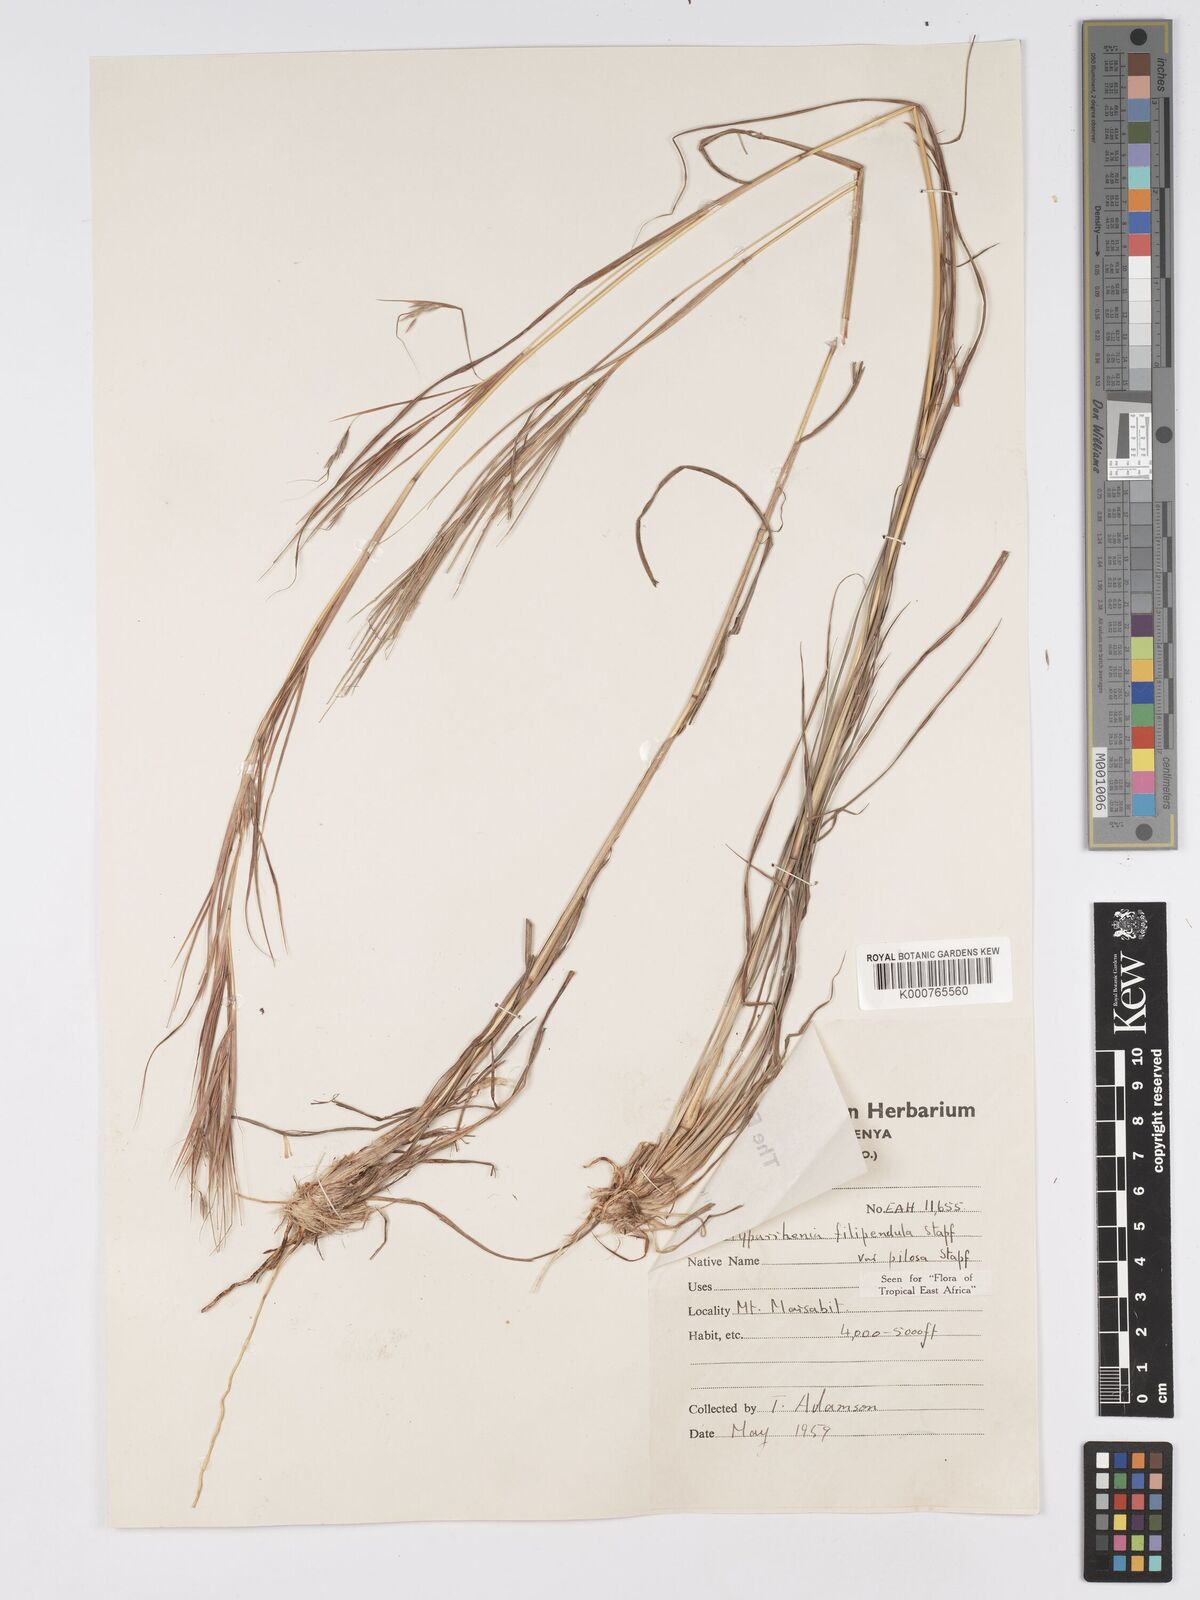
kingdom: Plantae
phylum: Tracheophyta
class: Liliopsida
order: Poales
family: Poaceae
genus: Hyparrhenia
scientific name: Hyparrhenia filipendula
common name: Tambookie grass
